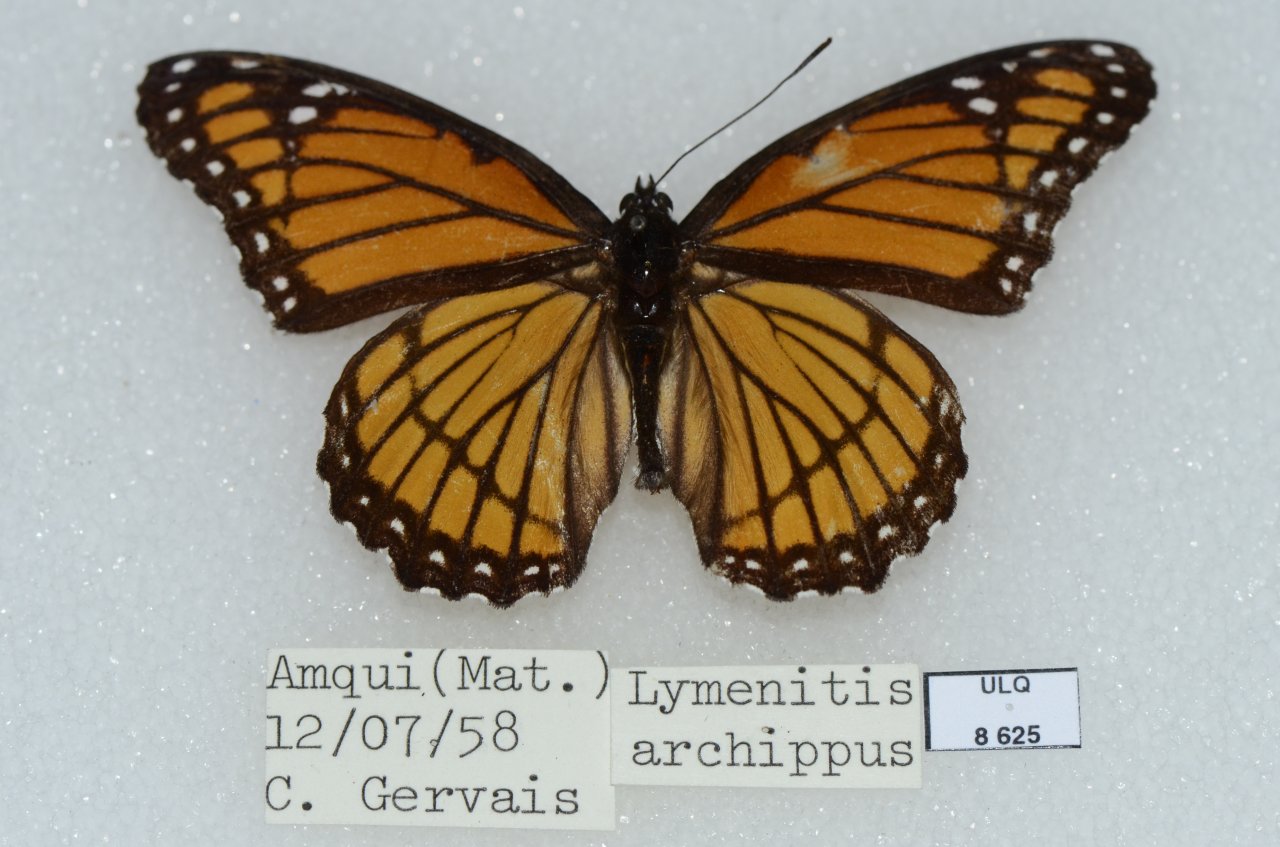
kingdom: Animalia
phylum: Arthropoda
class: Insecta
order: Lepidoptera
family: Nymphalidae
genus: Limenitis
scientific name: Limenitis archippus
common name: Viceroy
